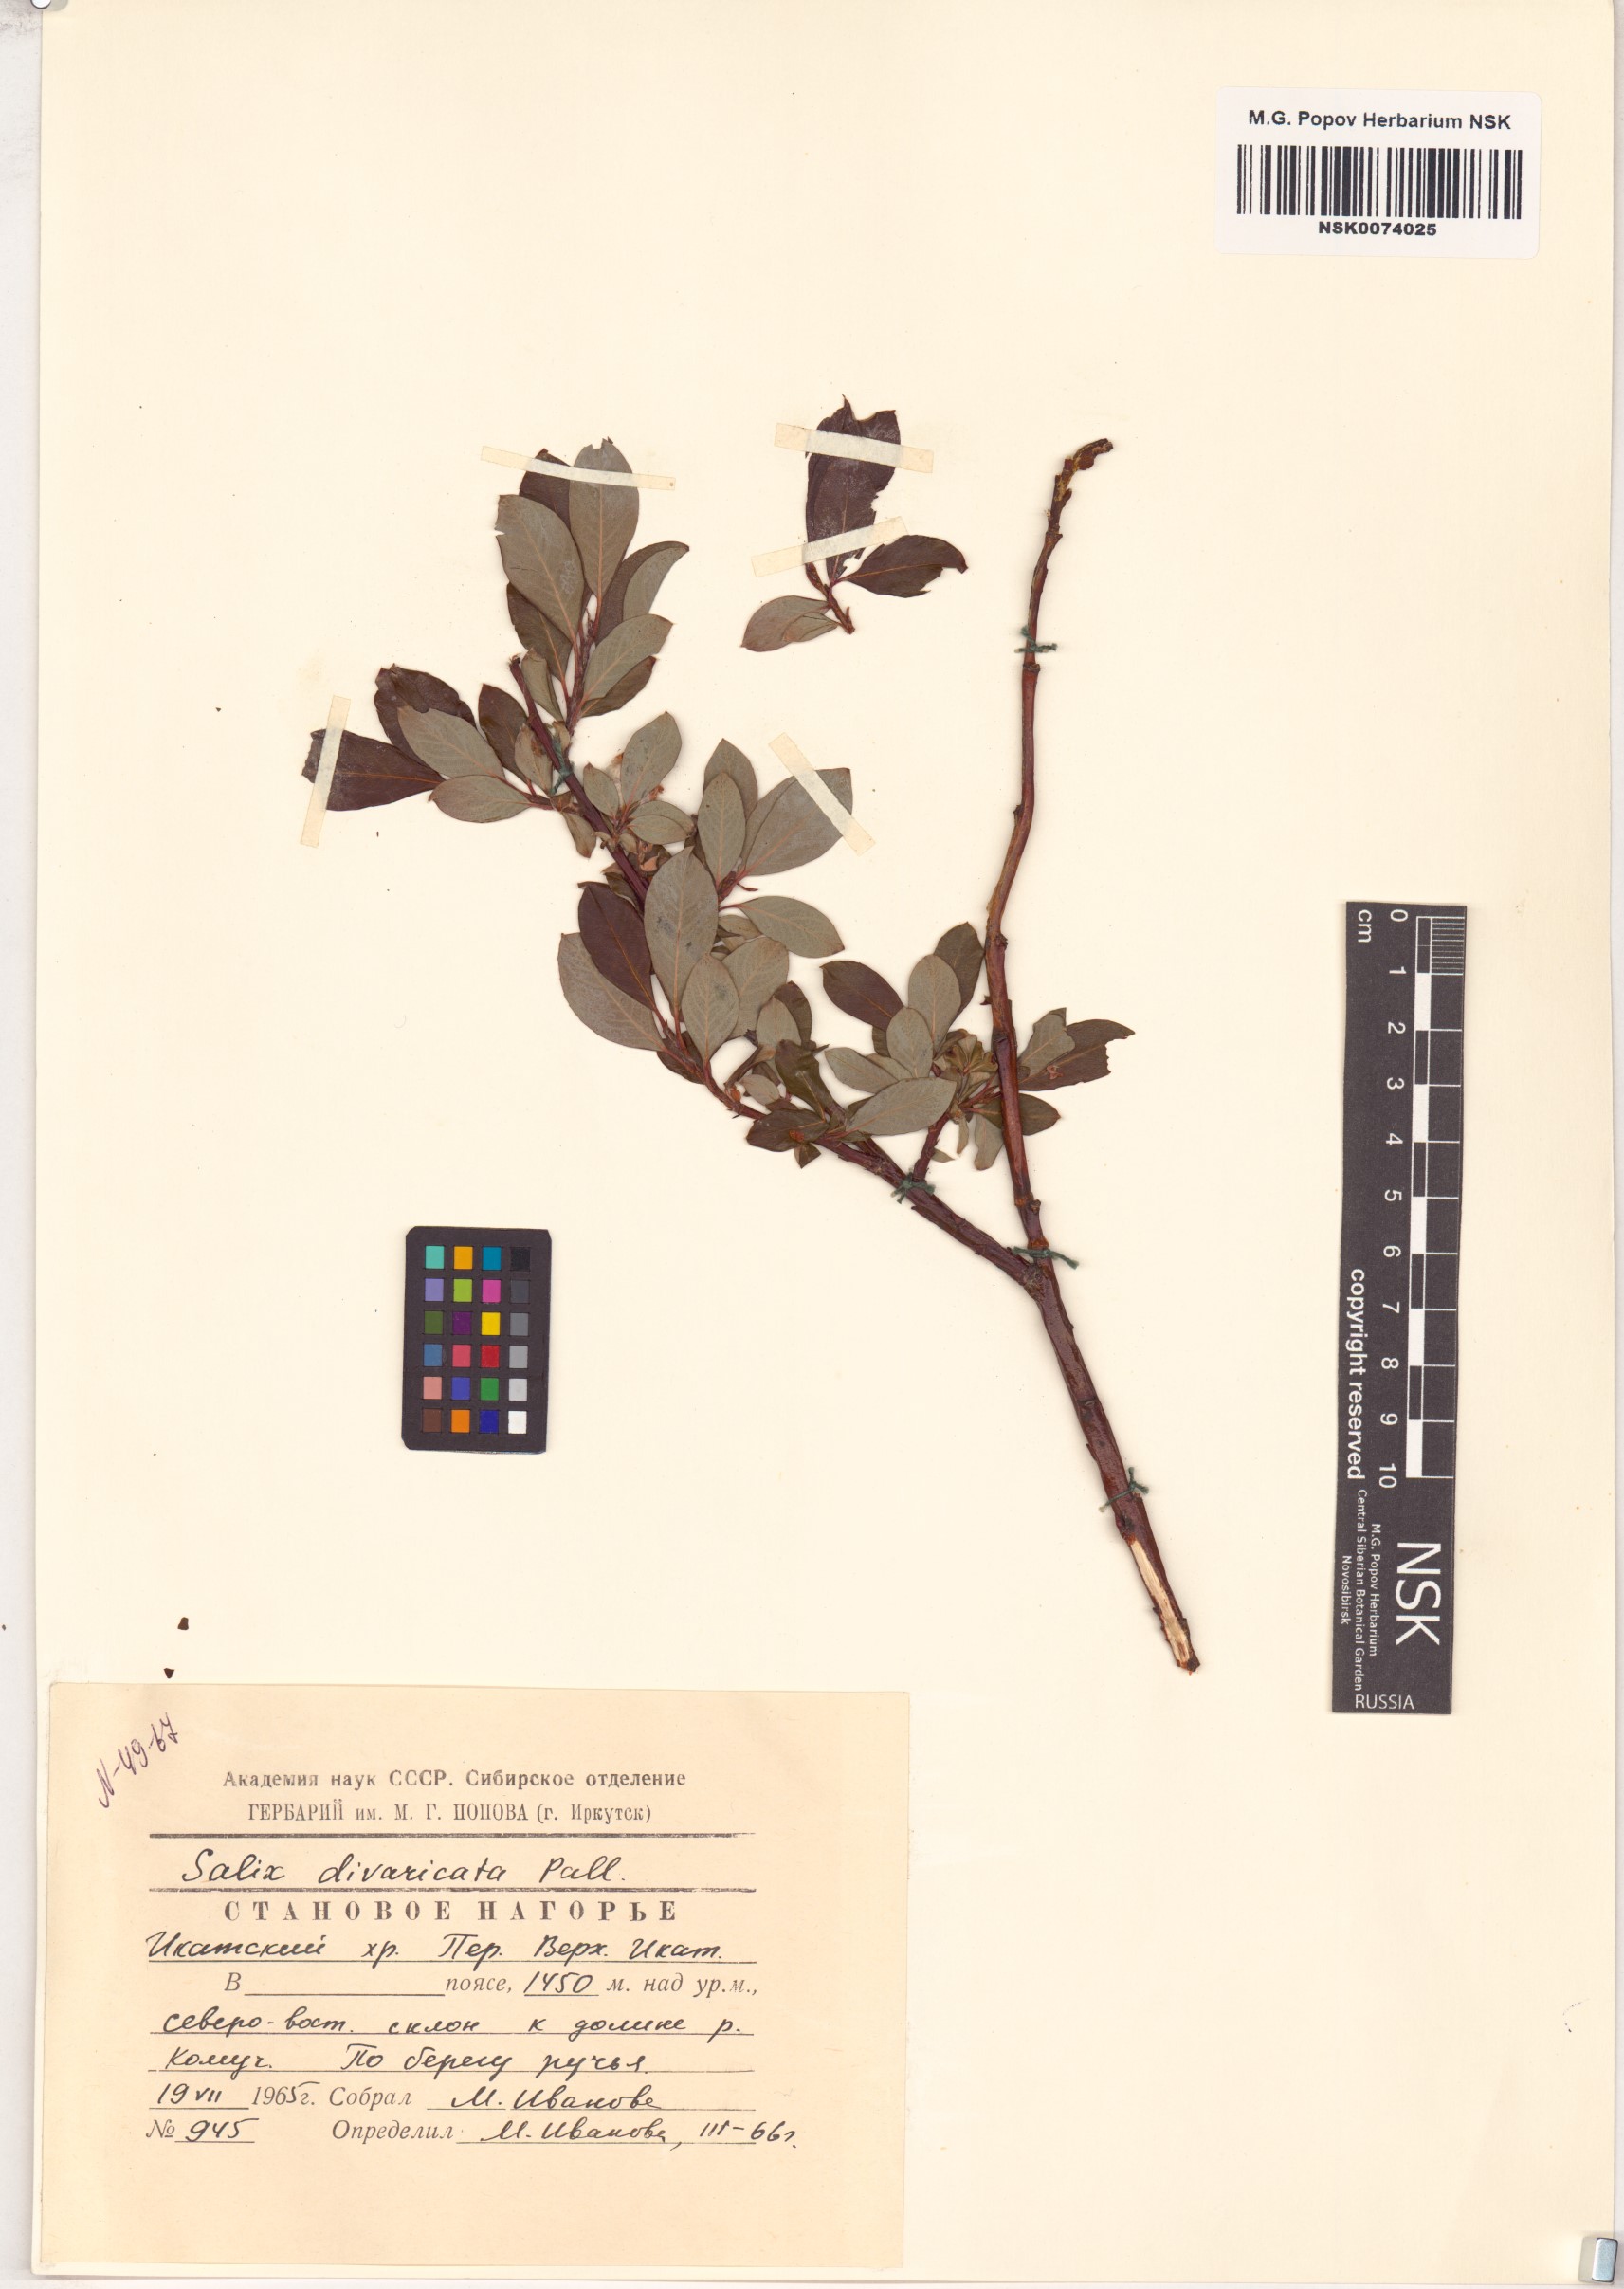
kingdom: Plantae
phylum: Tracheophyta
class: Magnoliopsida
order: Malpighiales
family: Salicaceae
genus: Salix
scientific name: Salix divaricata
